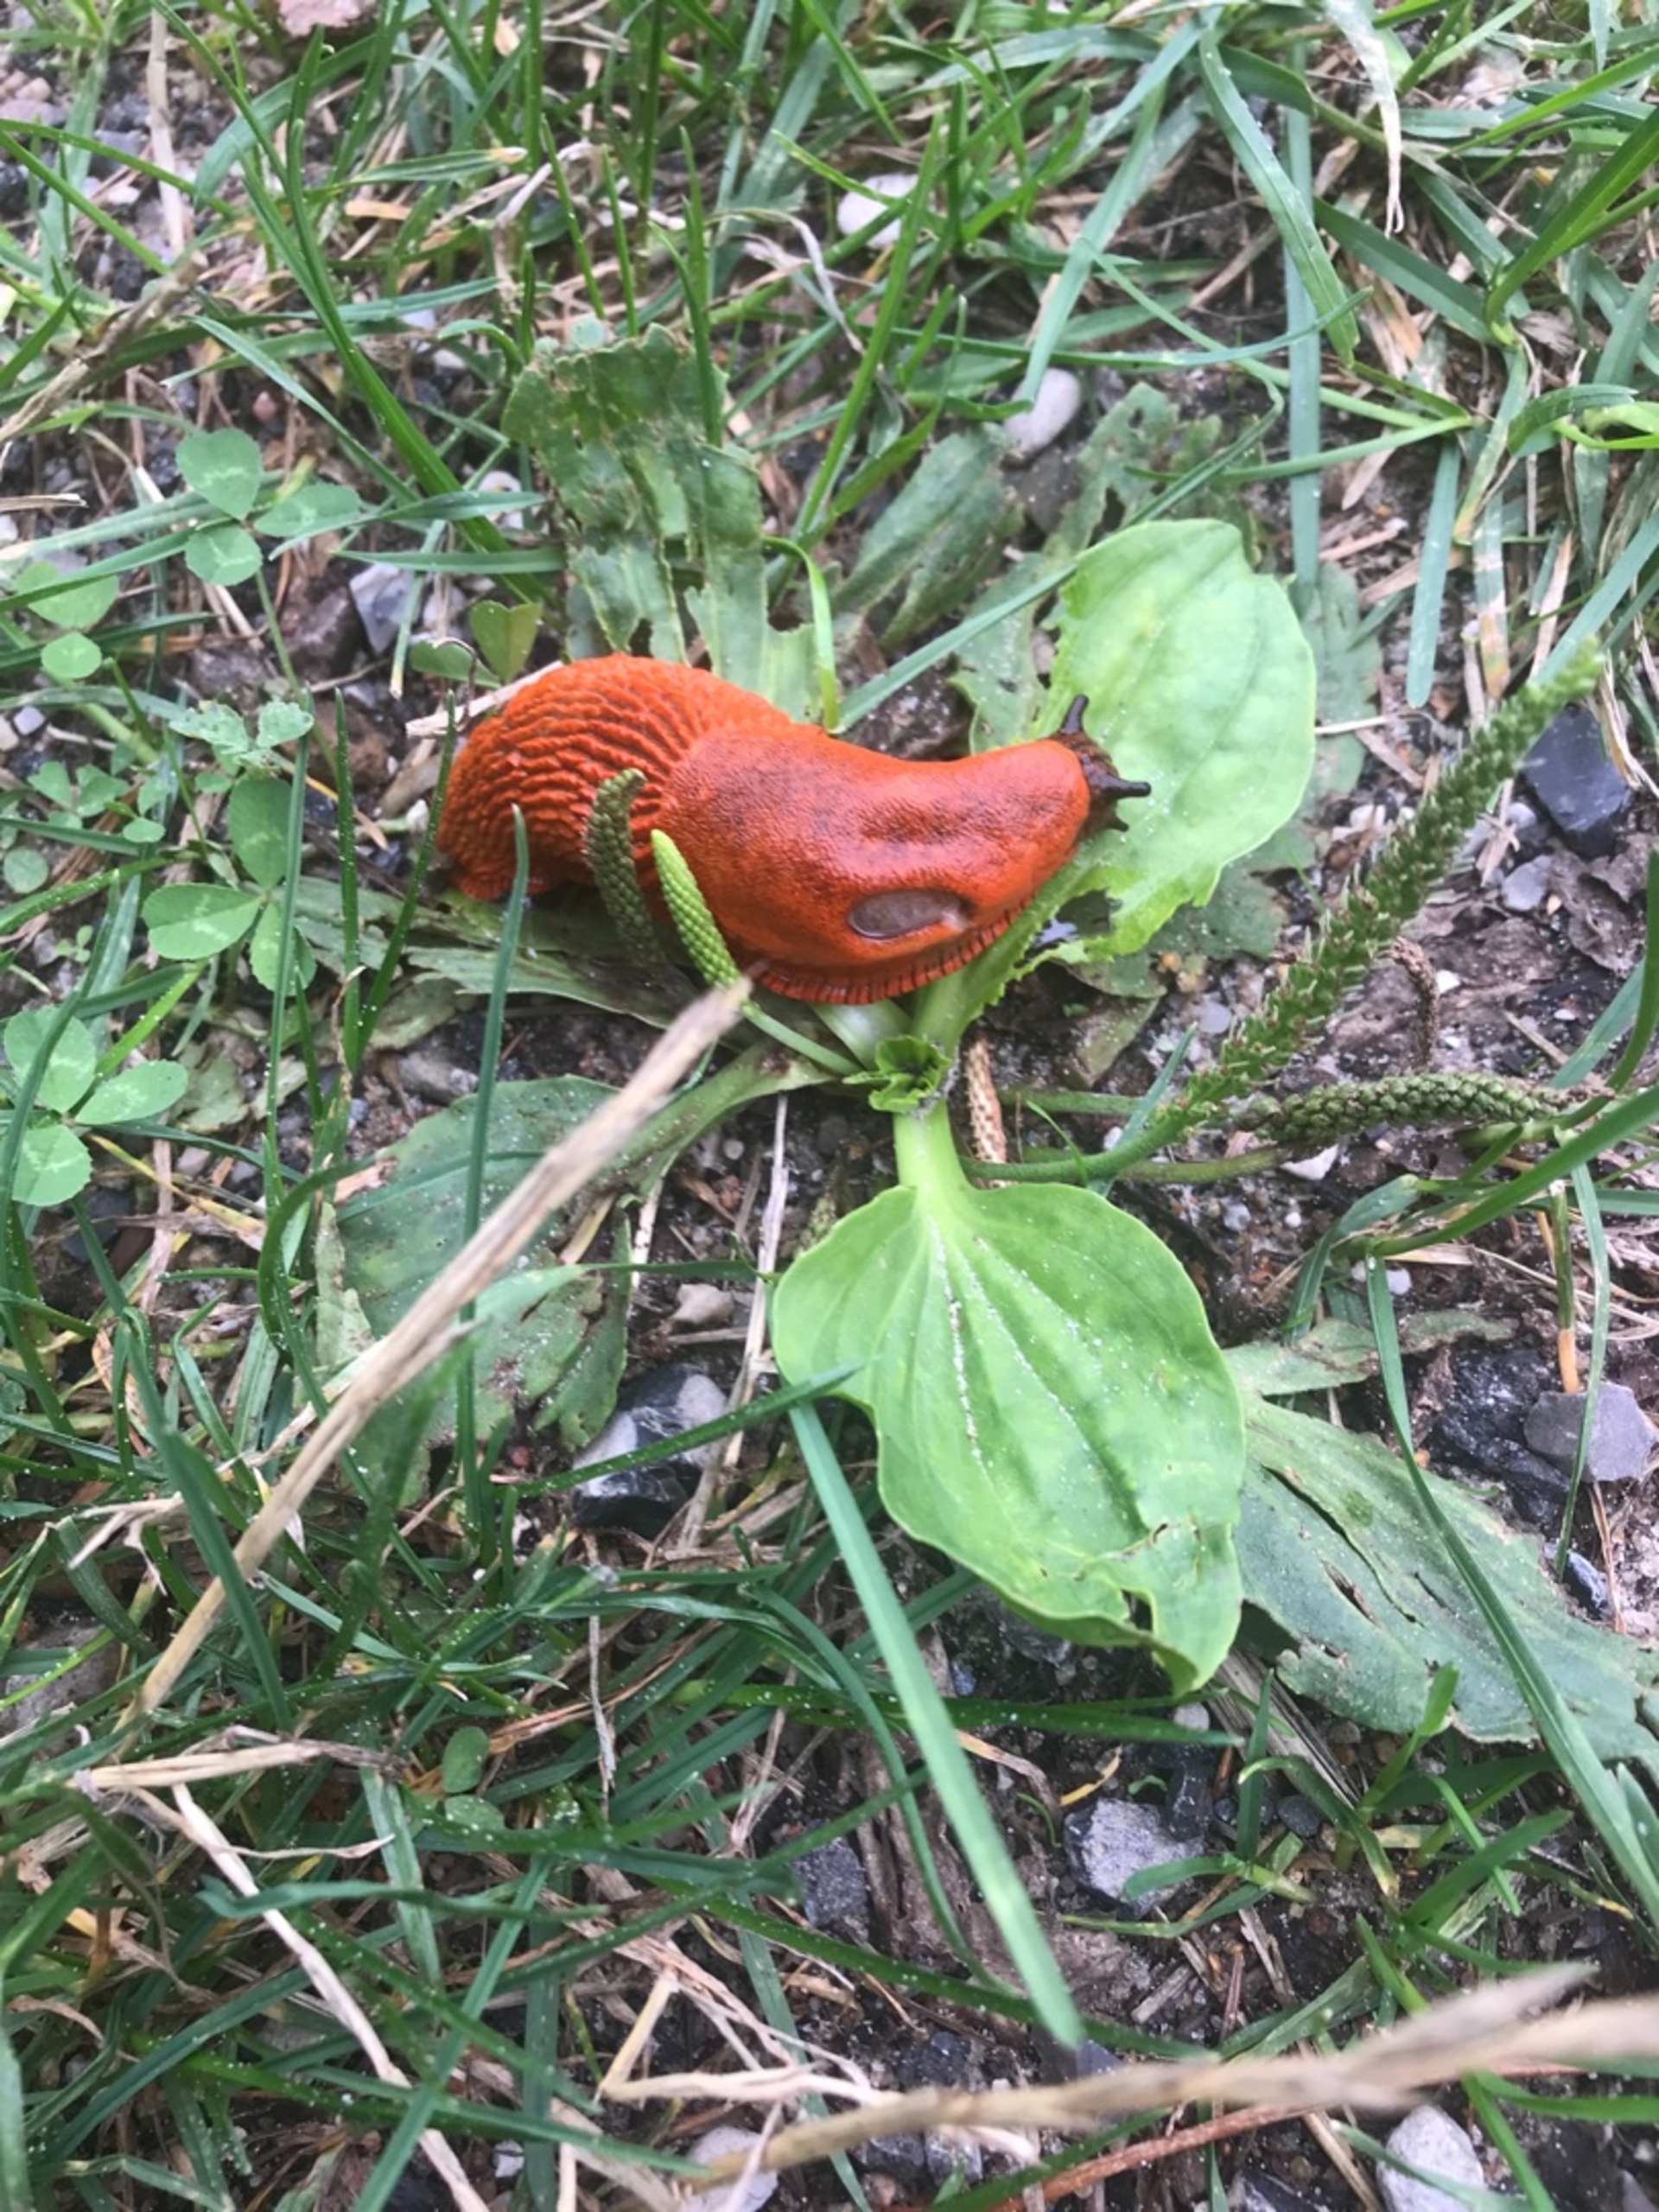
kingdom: Animalia
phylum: Mollusca
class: Gastropoda
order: Stylommatophora
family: Arionidae
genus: Arion
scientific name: Arion rufus
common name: Rød skovsnegl
